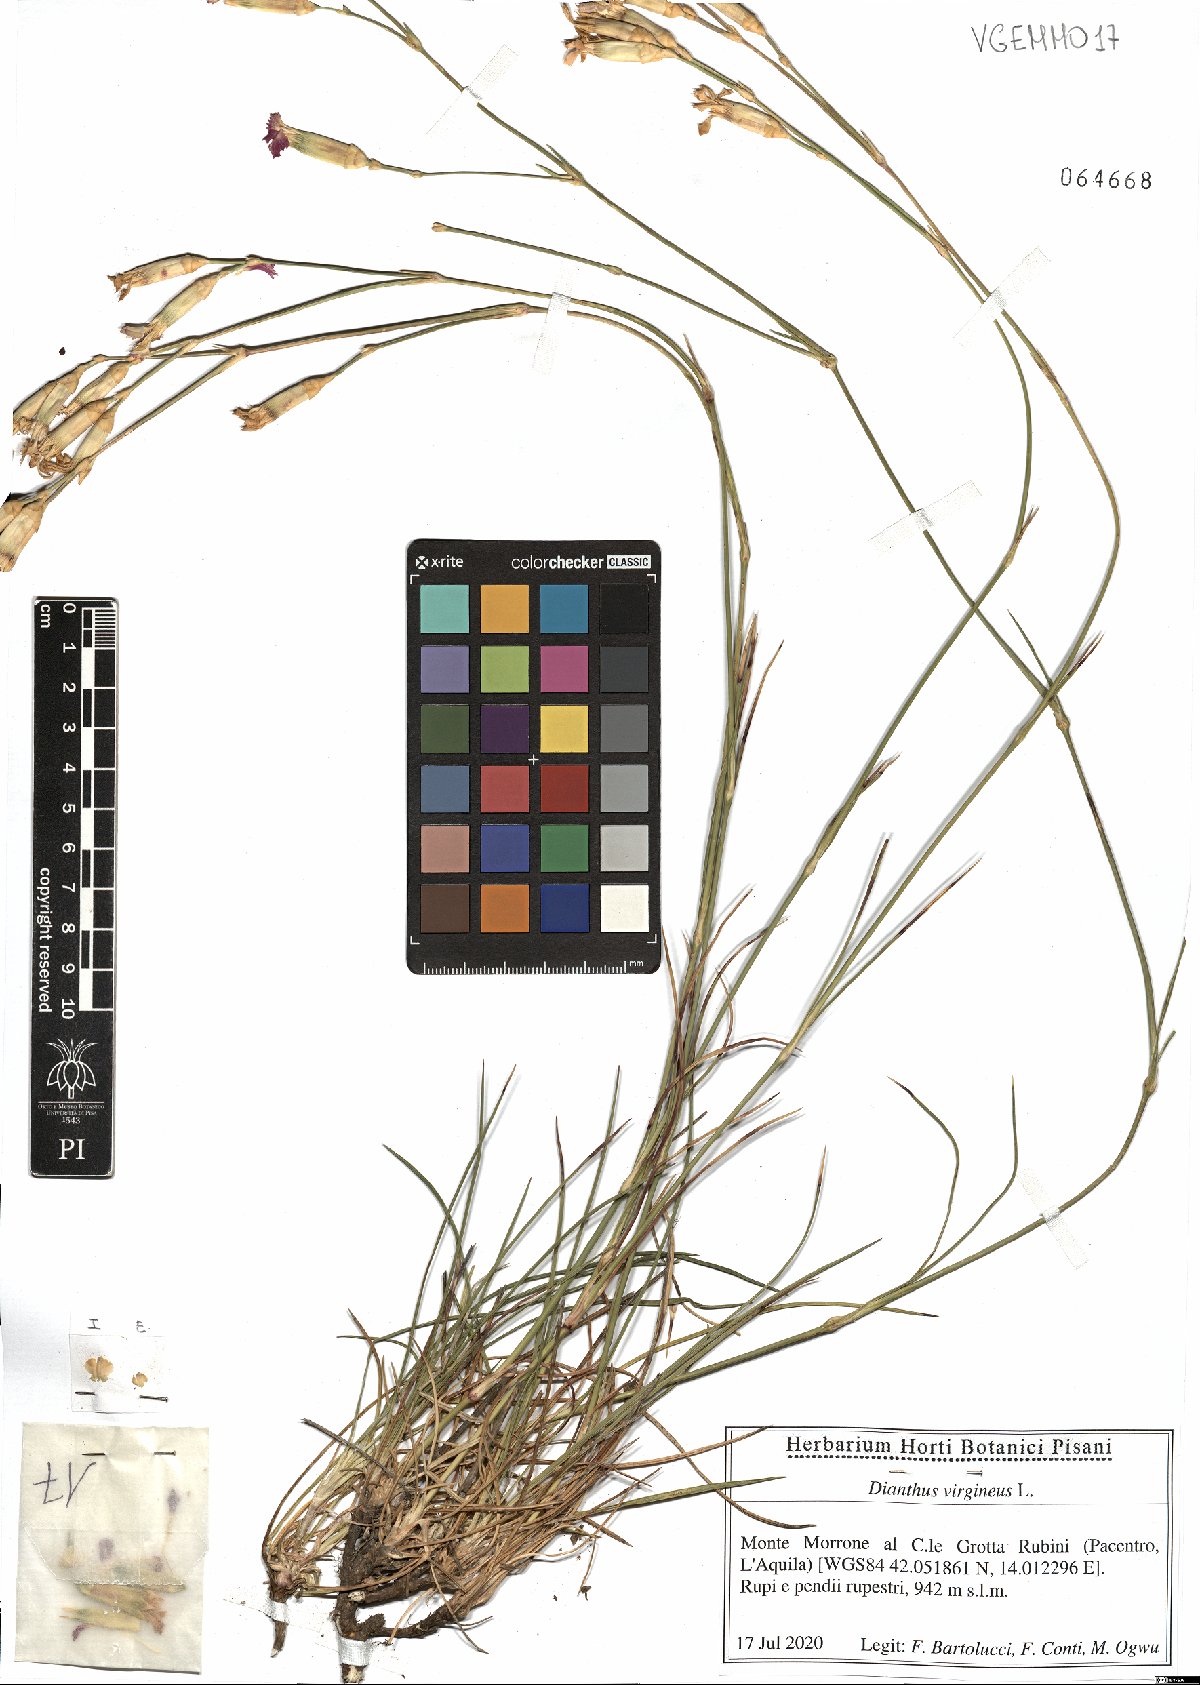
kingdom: Plantae
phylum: Tracheophyta
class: Magnoliopsida
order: Caryophyllales
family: Caryophyllaceae
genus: Dianthus
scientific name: Dianthus virgineus
